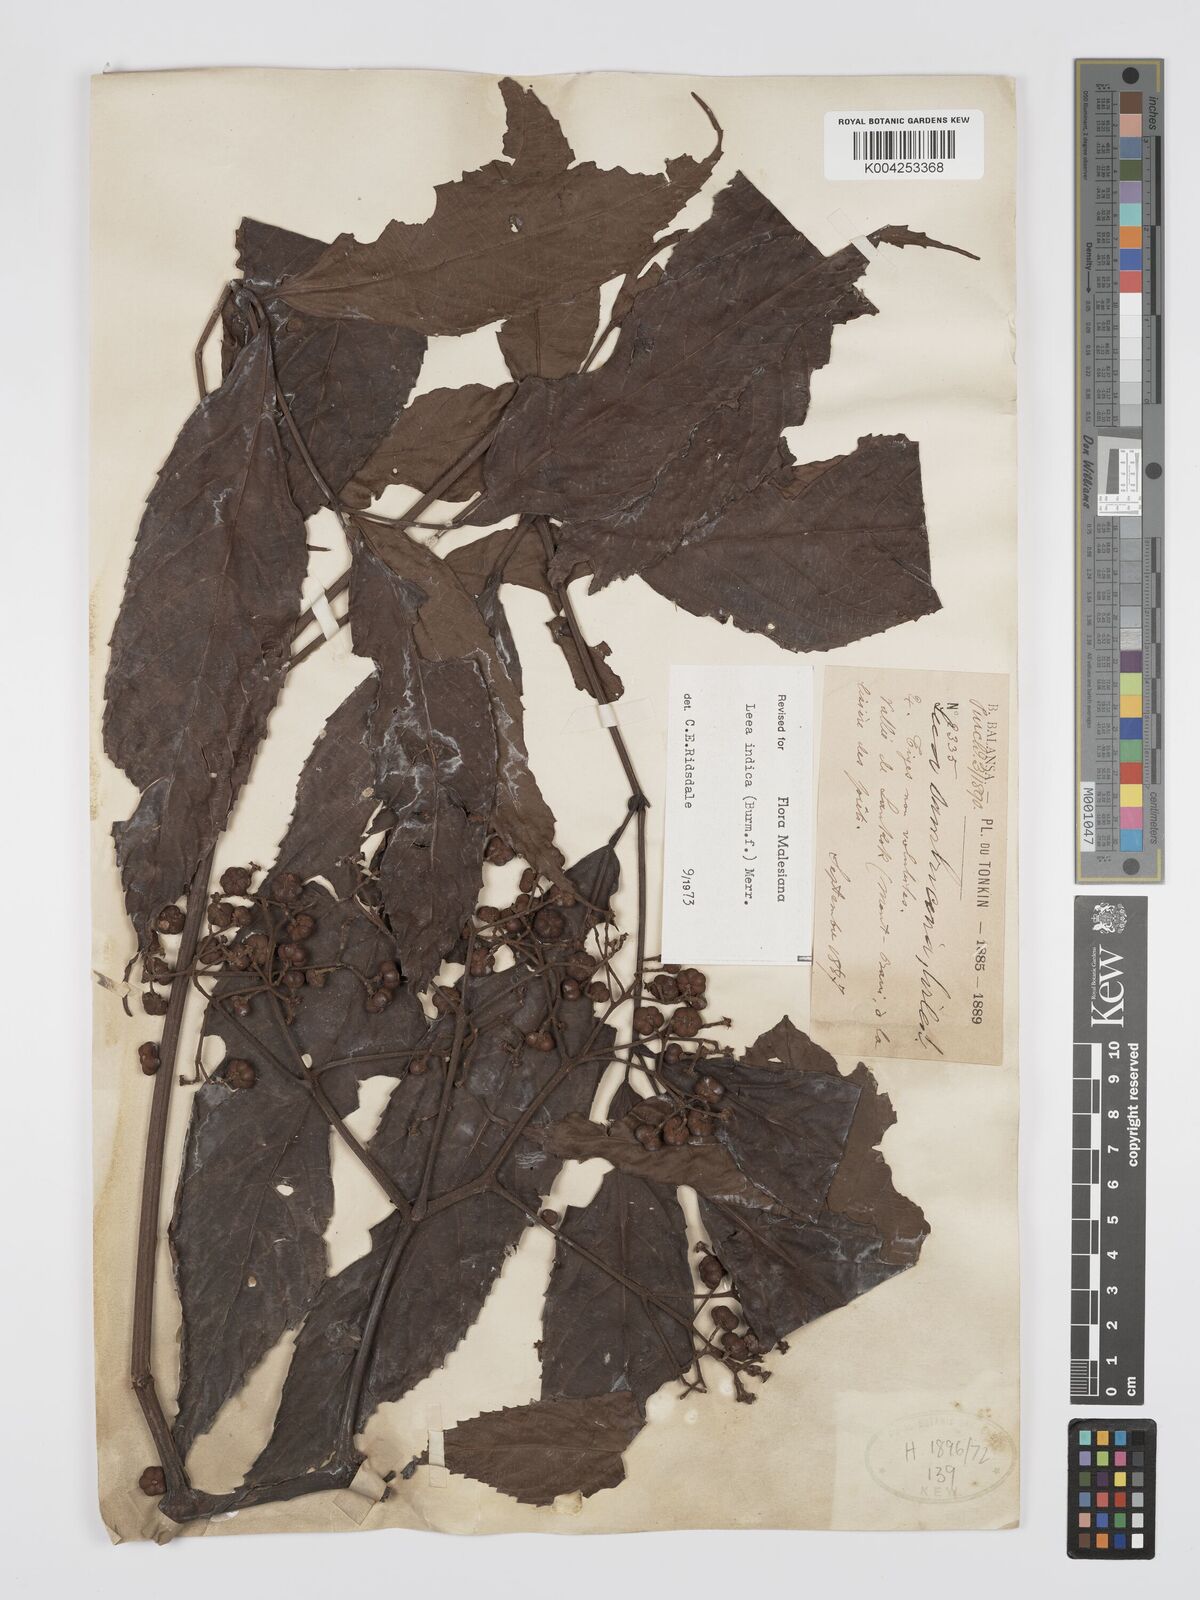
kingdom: Plantae
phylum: Tracheophyta
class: Magnoliopsida
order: Vitales
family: Vitaceae
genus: Leea
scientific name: Leea indica
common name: Bandicoot-berry
